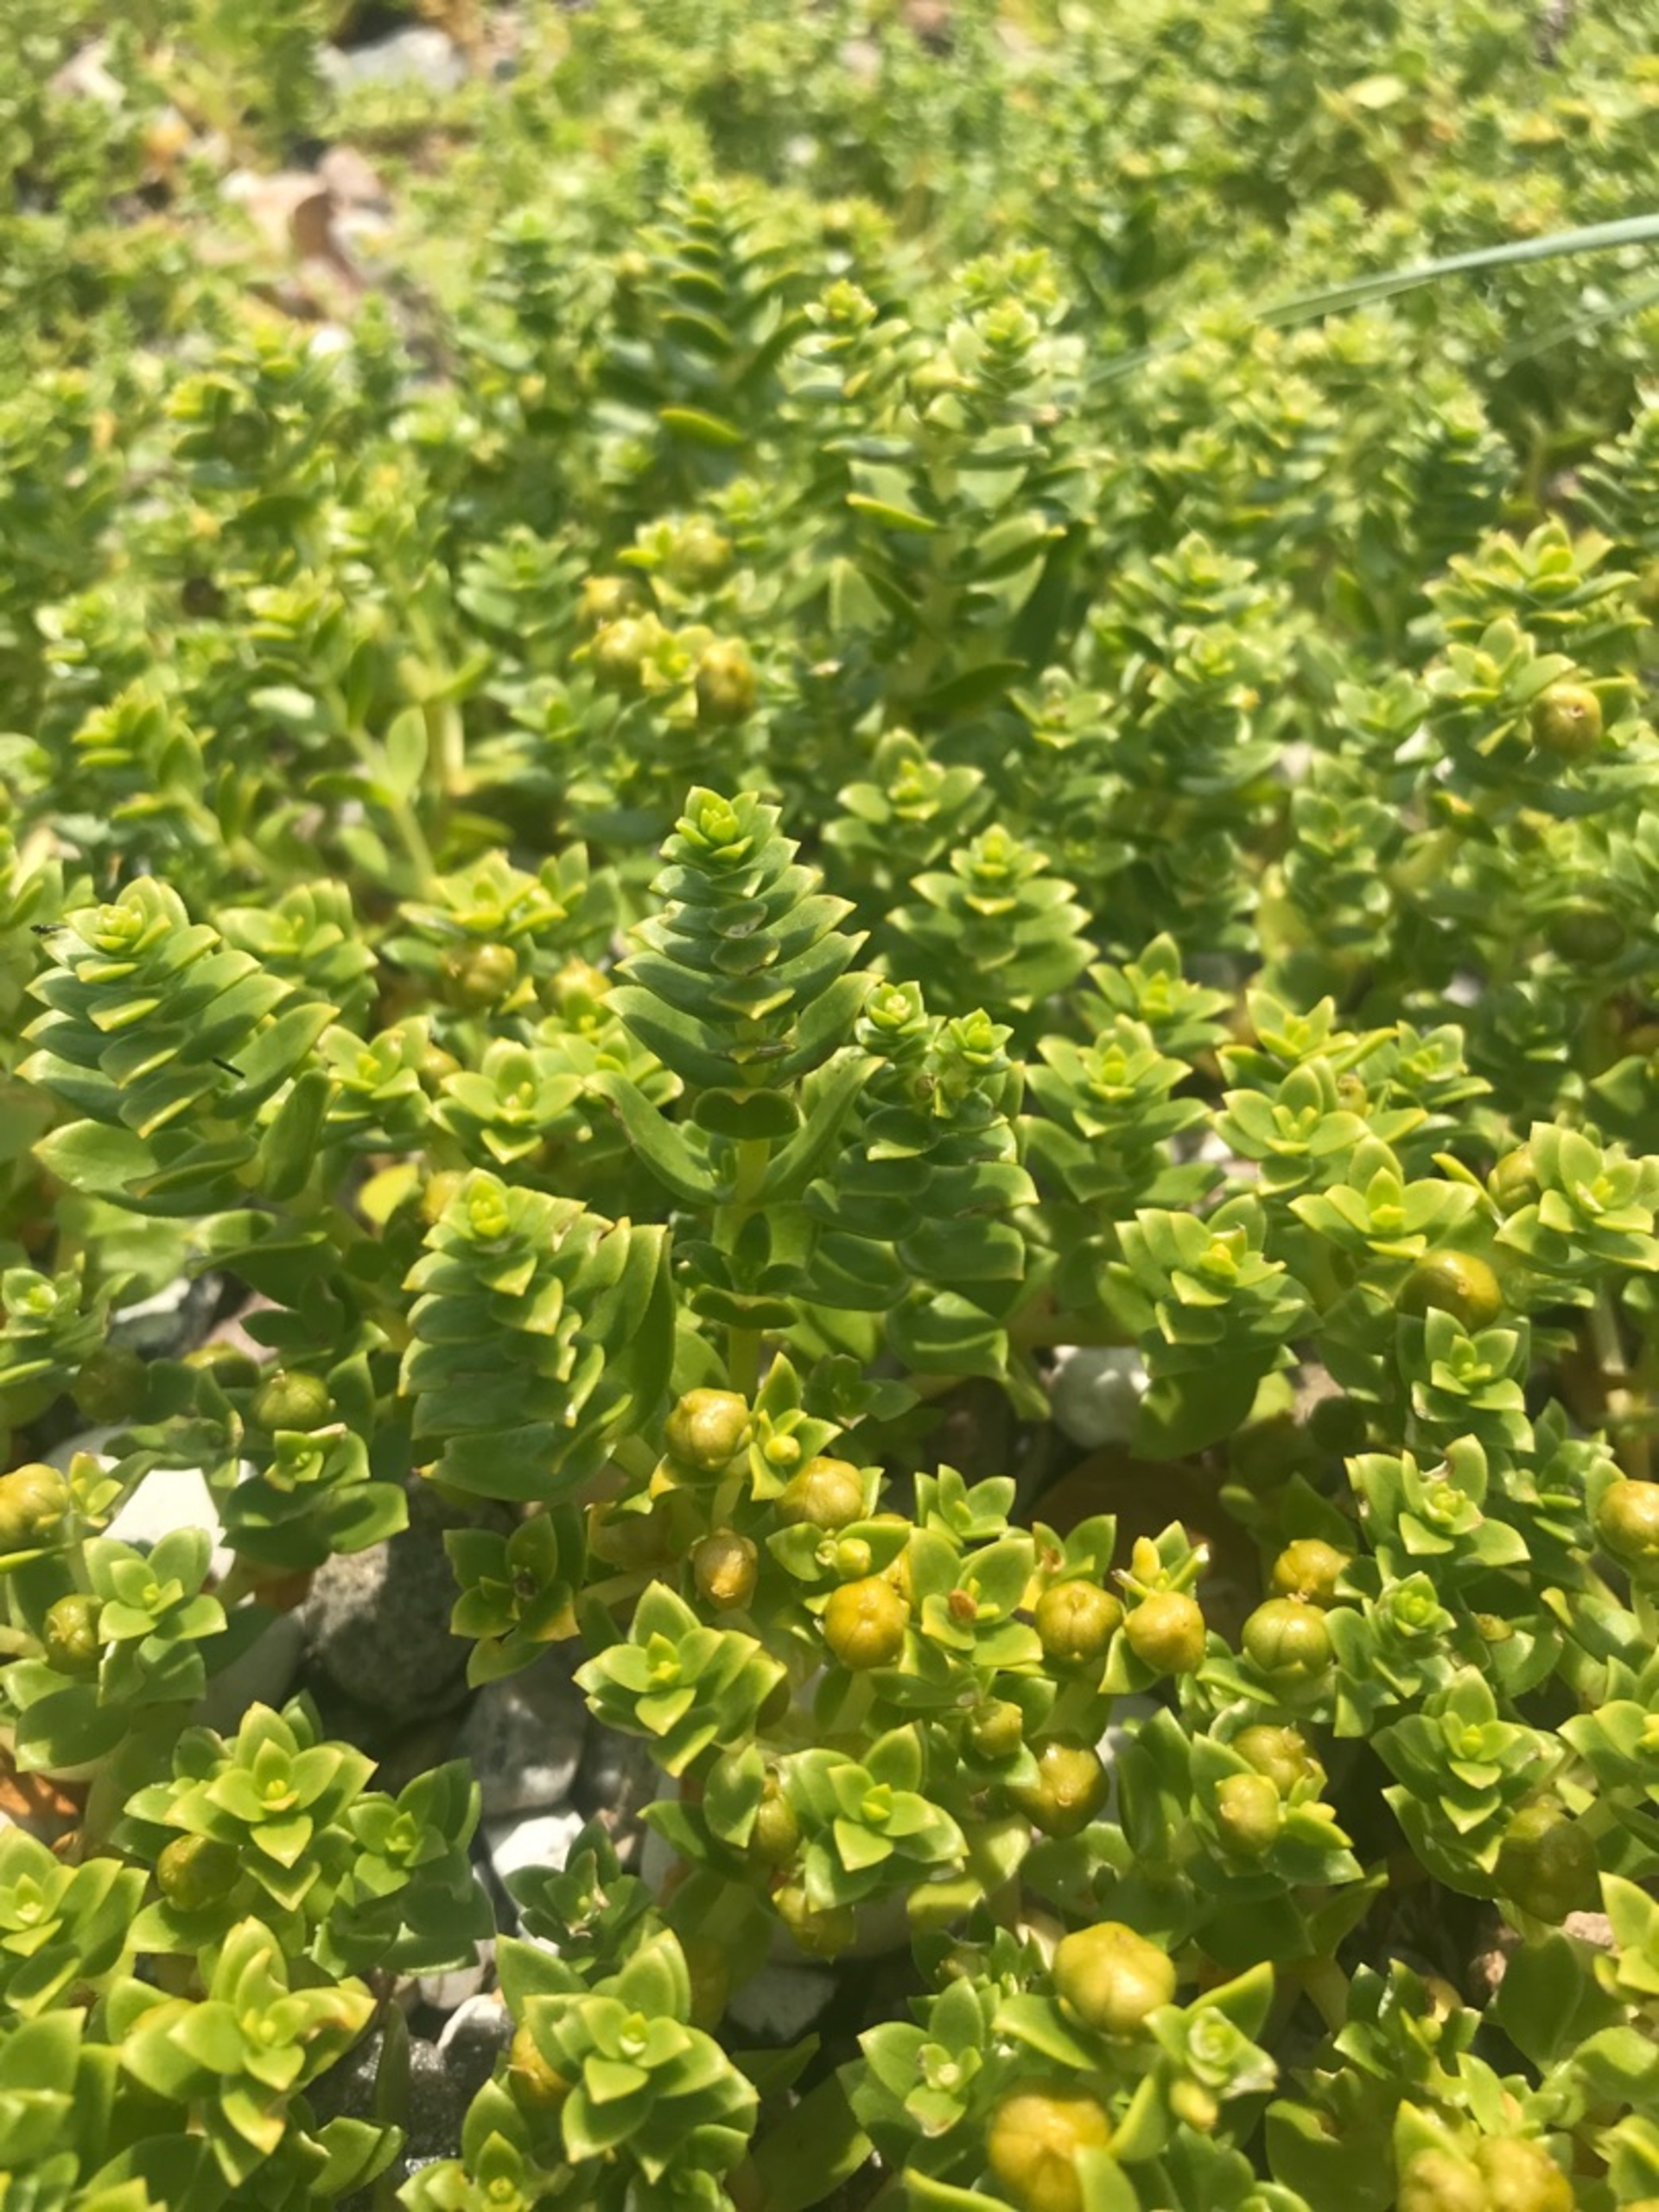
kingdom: Plantae
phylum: Tracheophyta
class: Magnoliopsida
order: Caryophyllales
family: Caryophyllaceae
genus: Honckenya
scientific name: Honckenya peploides
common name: Strandarve
